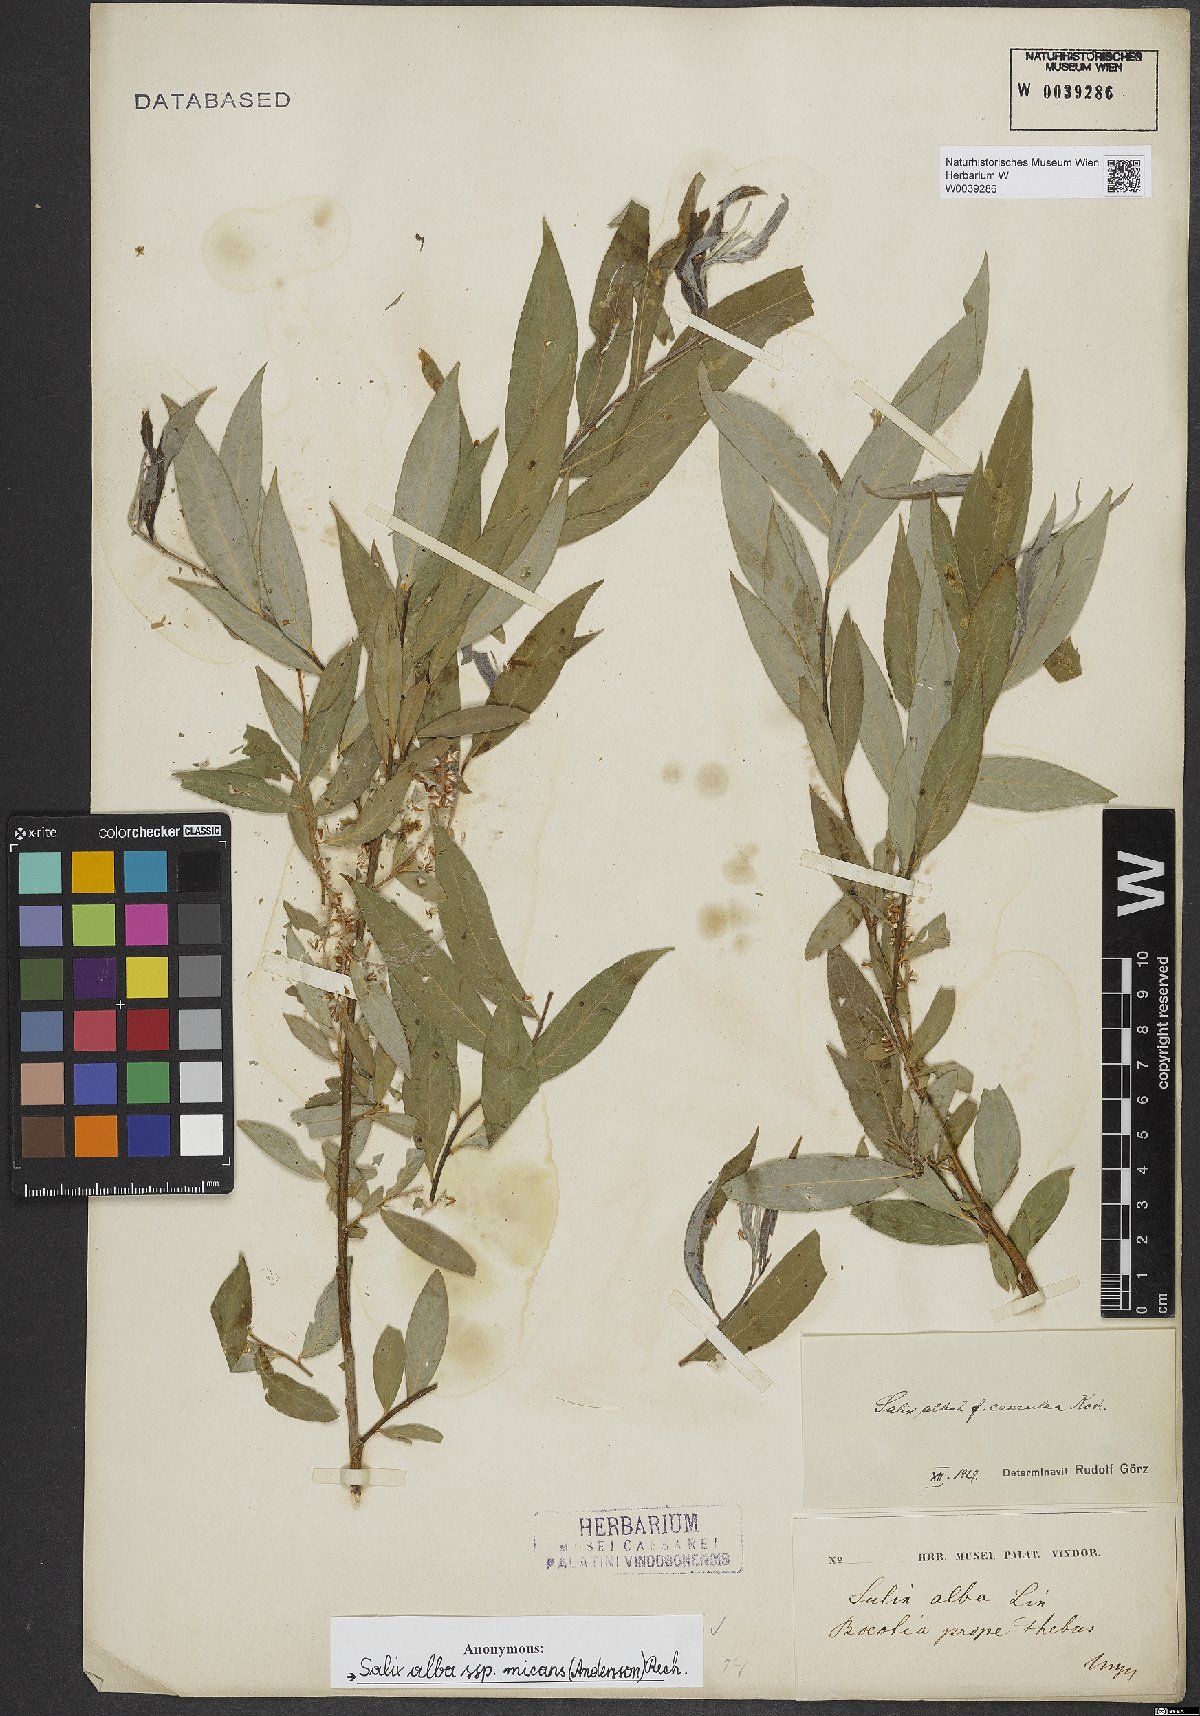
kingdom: Plantae
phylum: Tracheophyta
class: Magnoliopsida
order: Malpighiales
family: Salicaceae
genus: Salix
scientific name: Salix alba
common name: White willow
